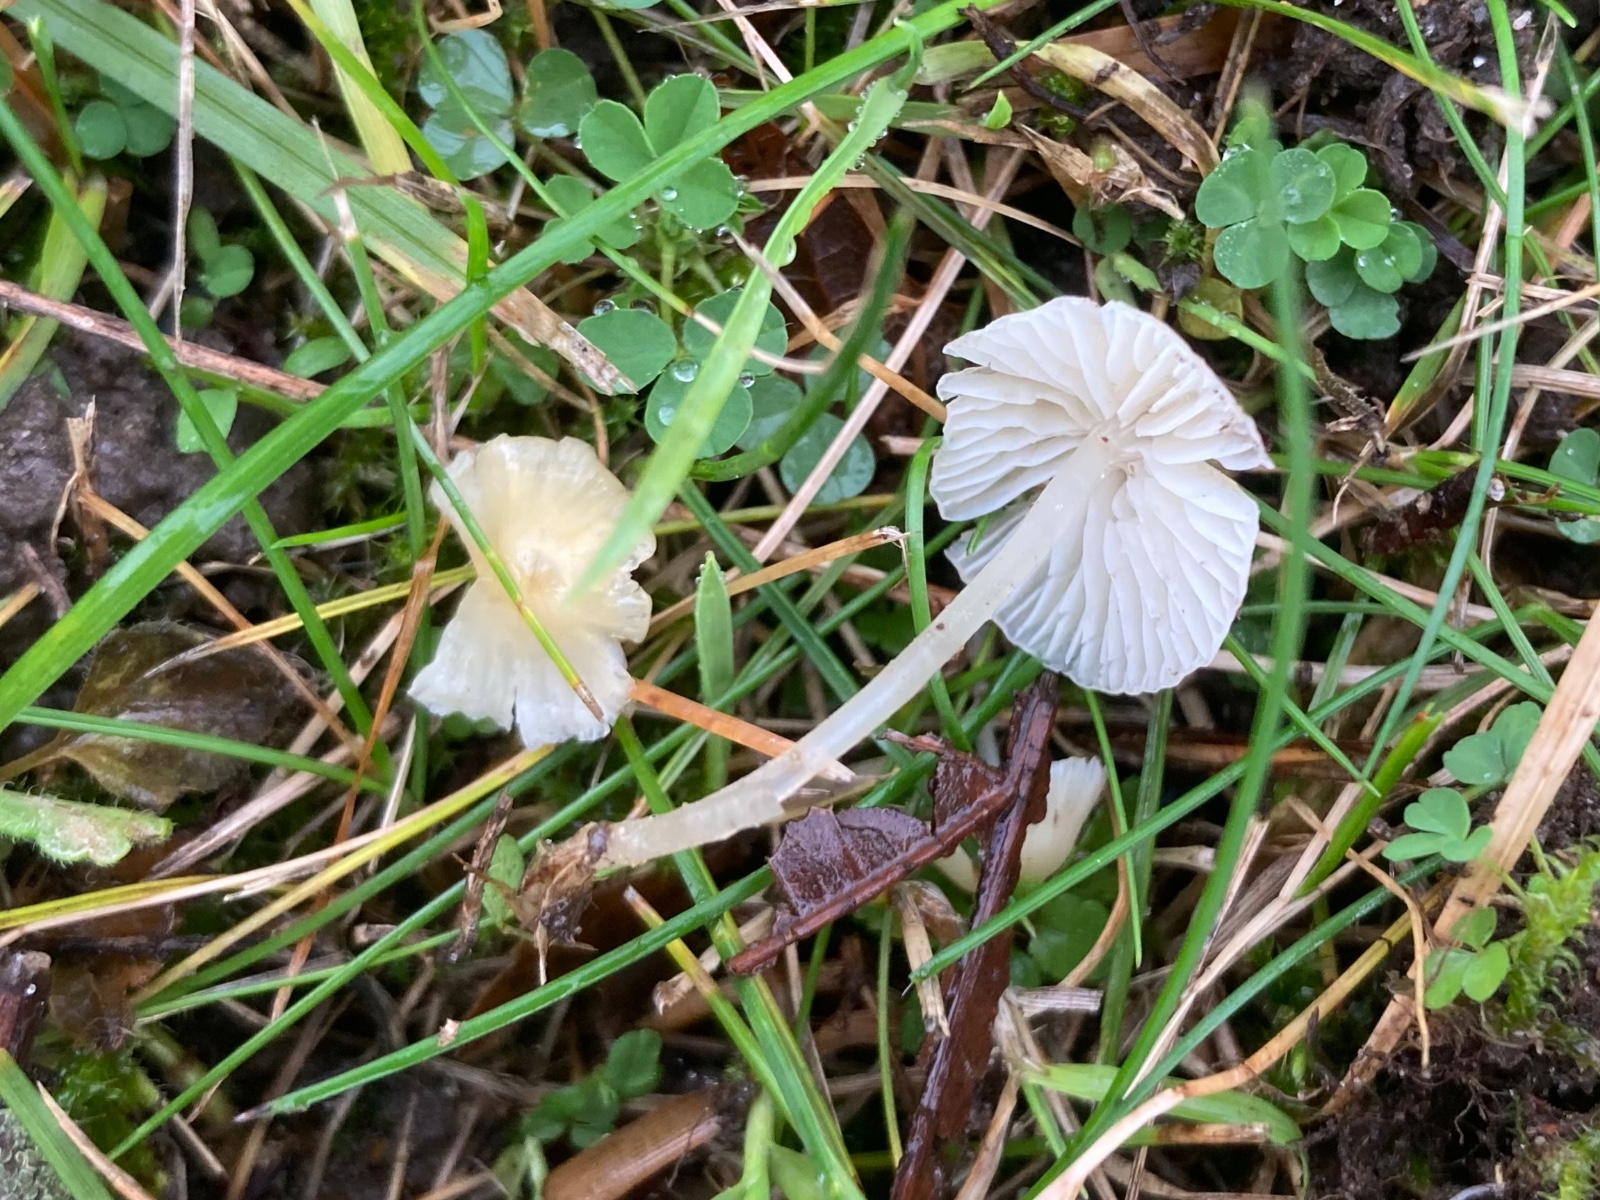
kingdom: Fungi
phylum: Basidiomycota
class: Agaricomycetes
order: Agaricales
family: Mycenaceae
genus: Atheniella
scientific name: Atheniella flavoalba
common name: gulhvid huesvamp
